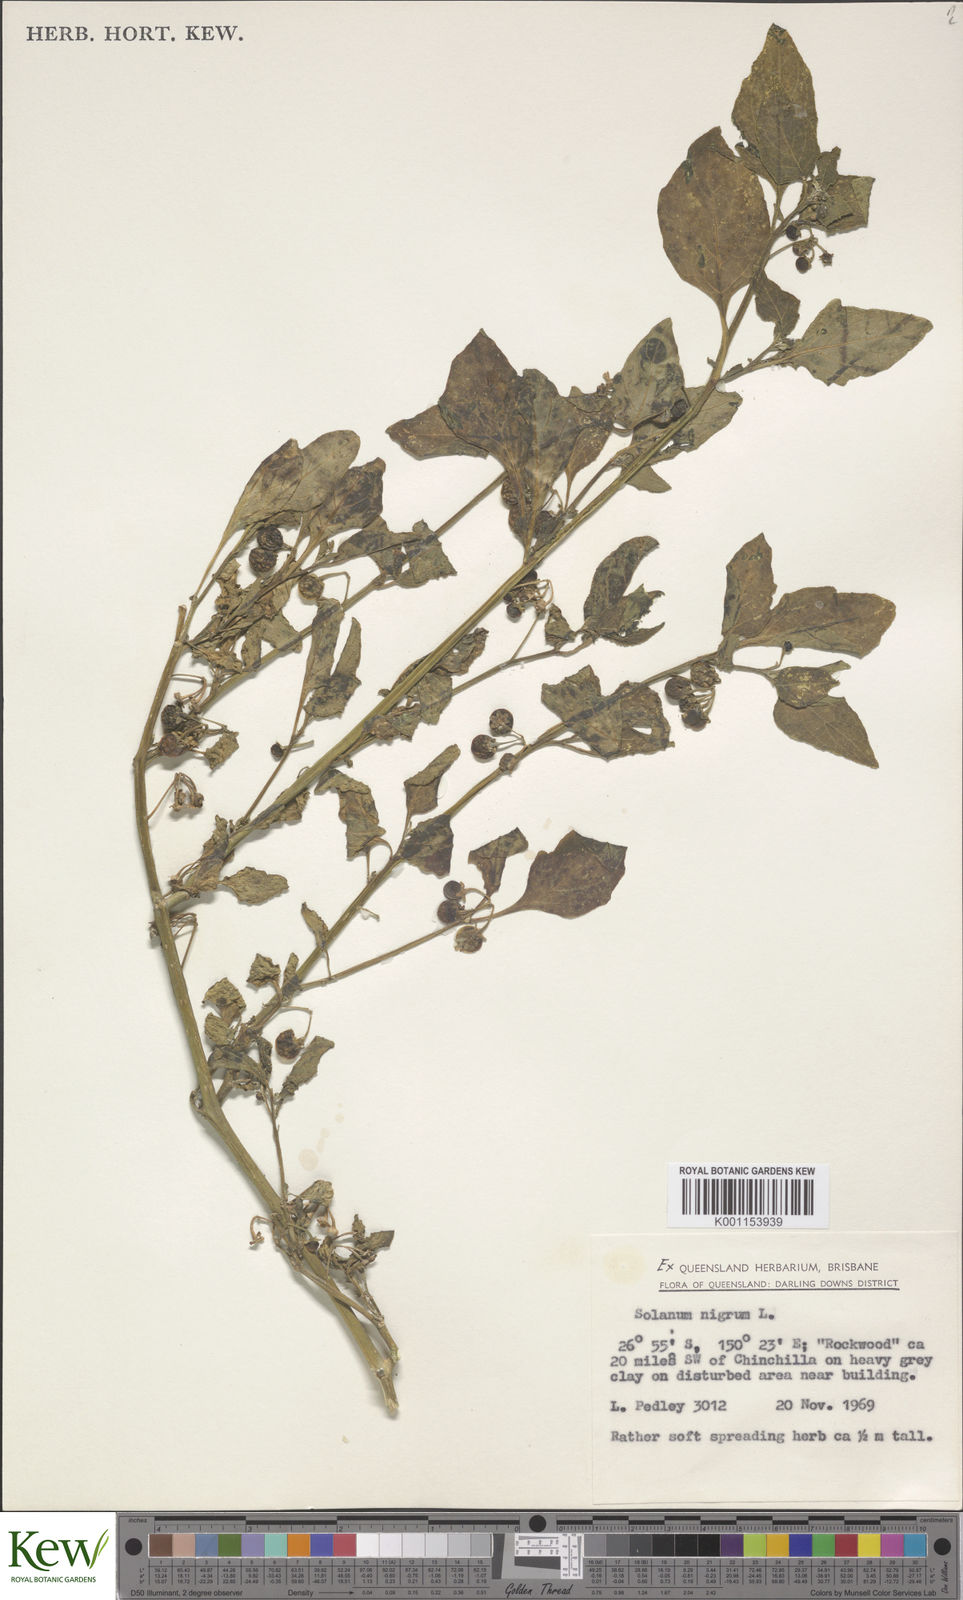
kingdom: Plantae
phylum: Tracheophyta
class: Magnoliopsida
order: Solanales
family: Solanaceae
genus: Solanum
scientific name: Solanum nigrum
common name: Black nightshade
